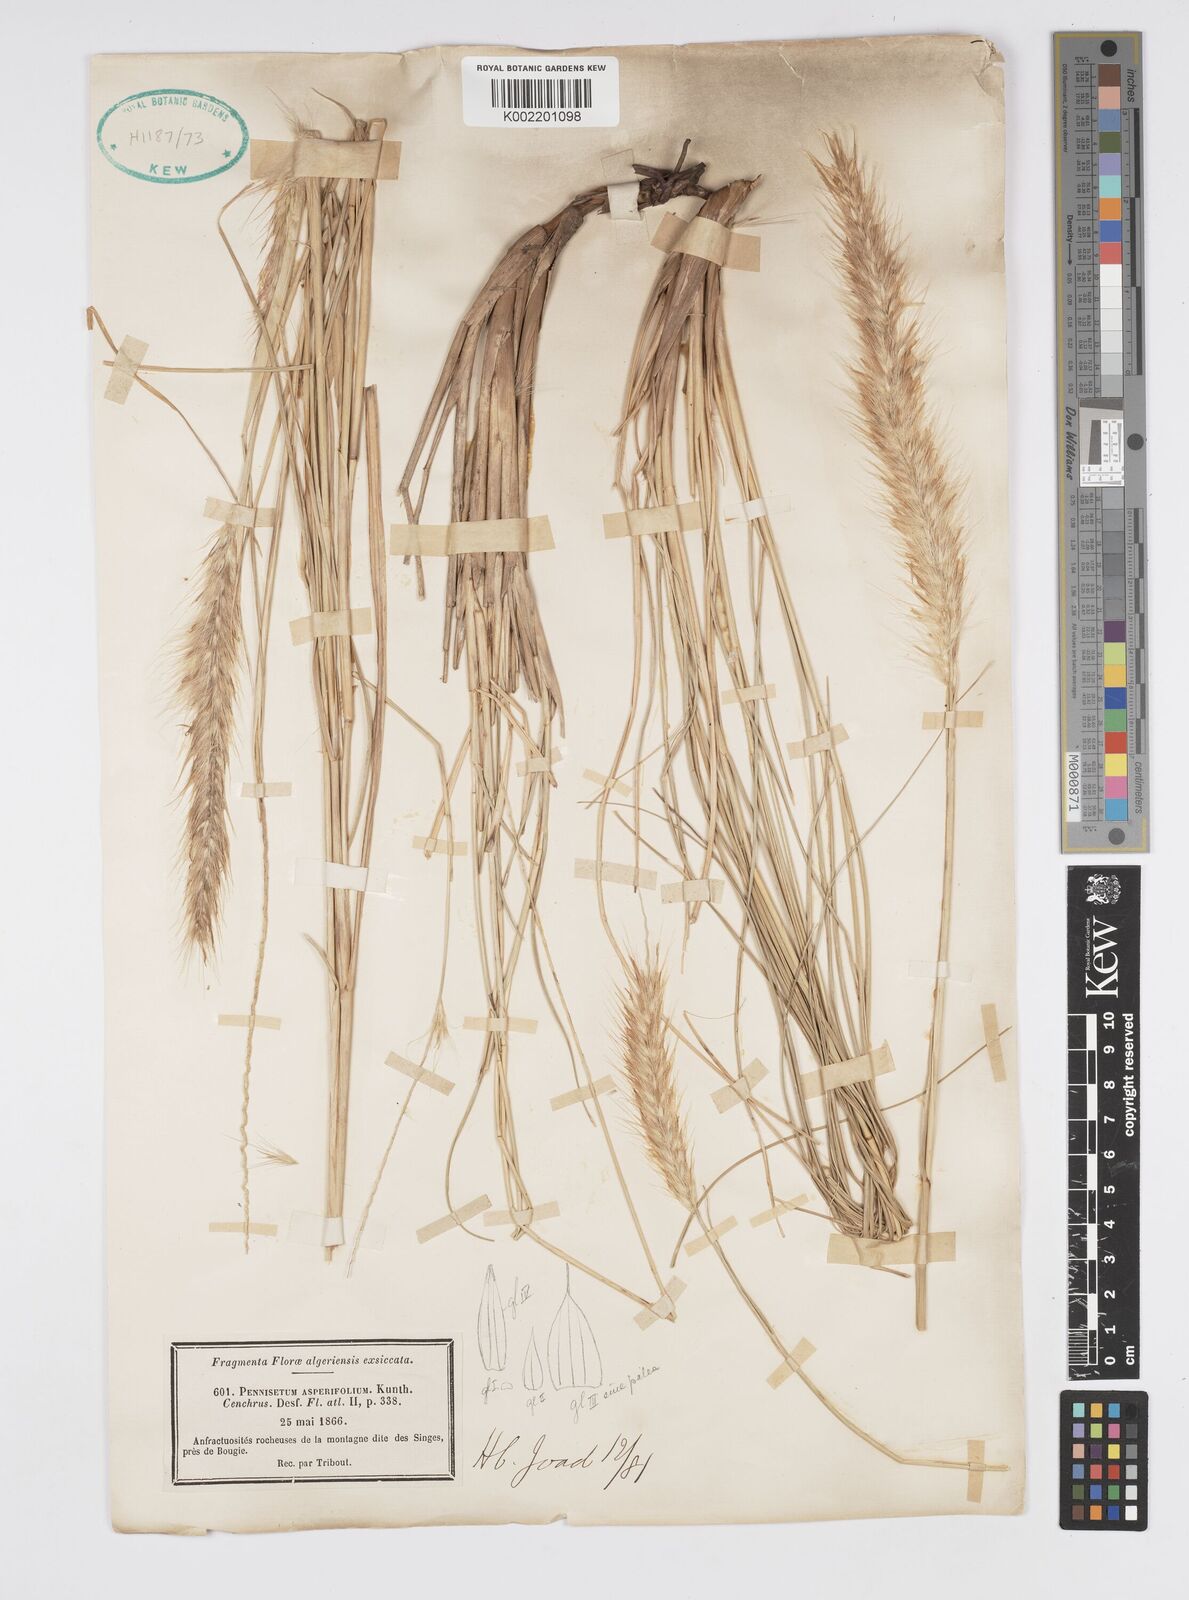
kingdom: Plantae
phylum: Tracheophyta
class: Liliopsida
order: Poales
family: Poaceae
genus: Cenchrus
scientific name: Cenchrus setaceus
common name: Crimson fountaingrass
